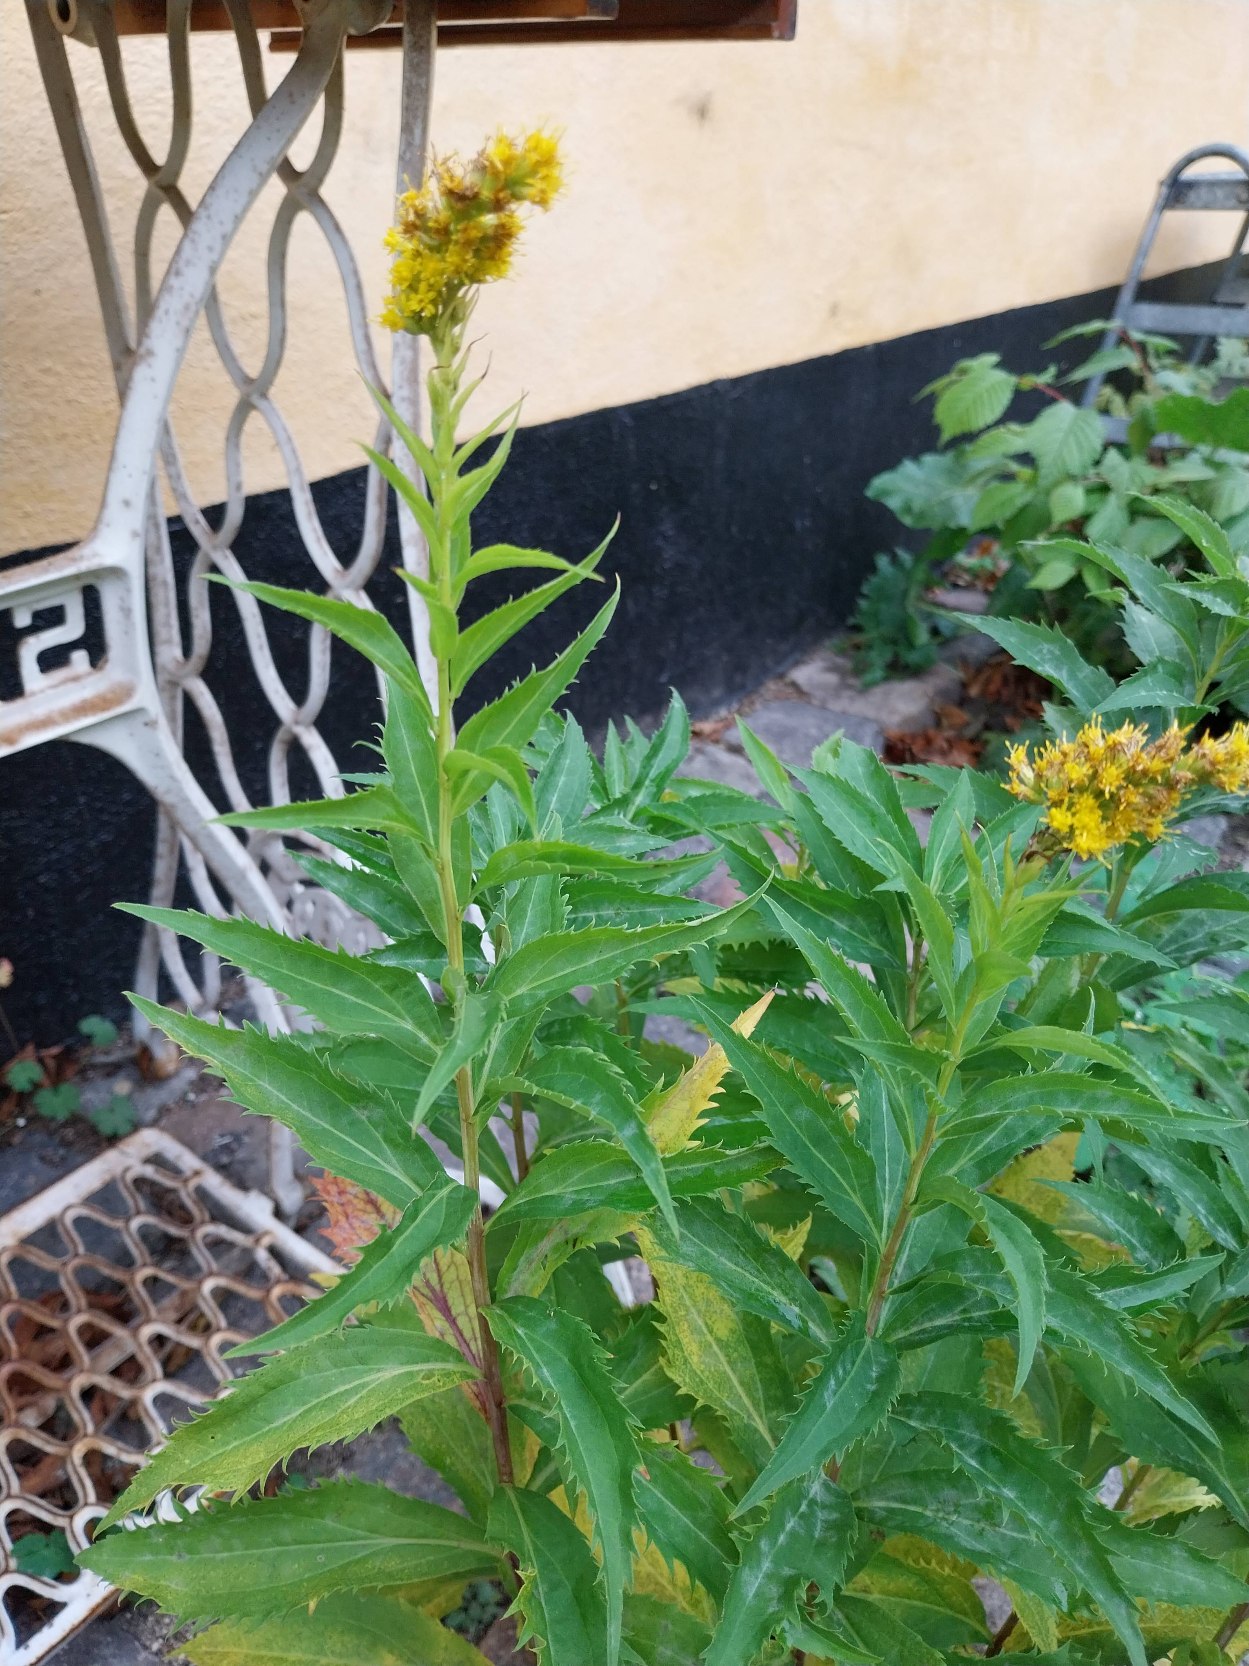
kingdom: Plantae
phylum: Tracheophyta
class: Magnoliopsida
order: Asterales
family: Asteraceae
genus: Solidago
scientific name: Solidago gigantea
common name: Sildig gyldenris
